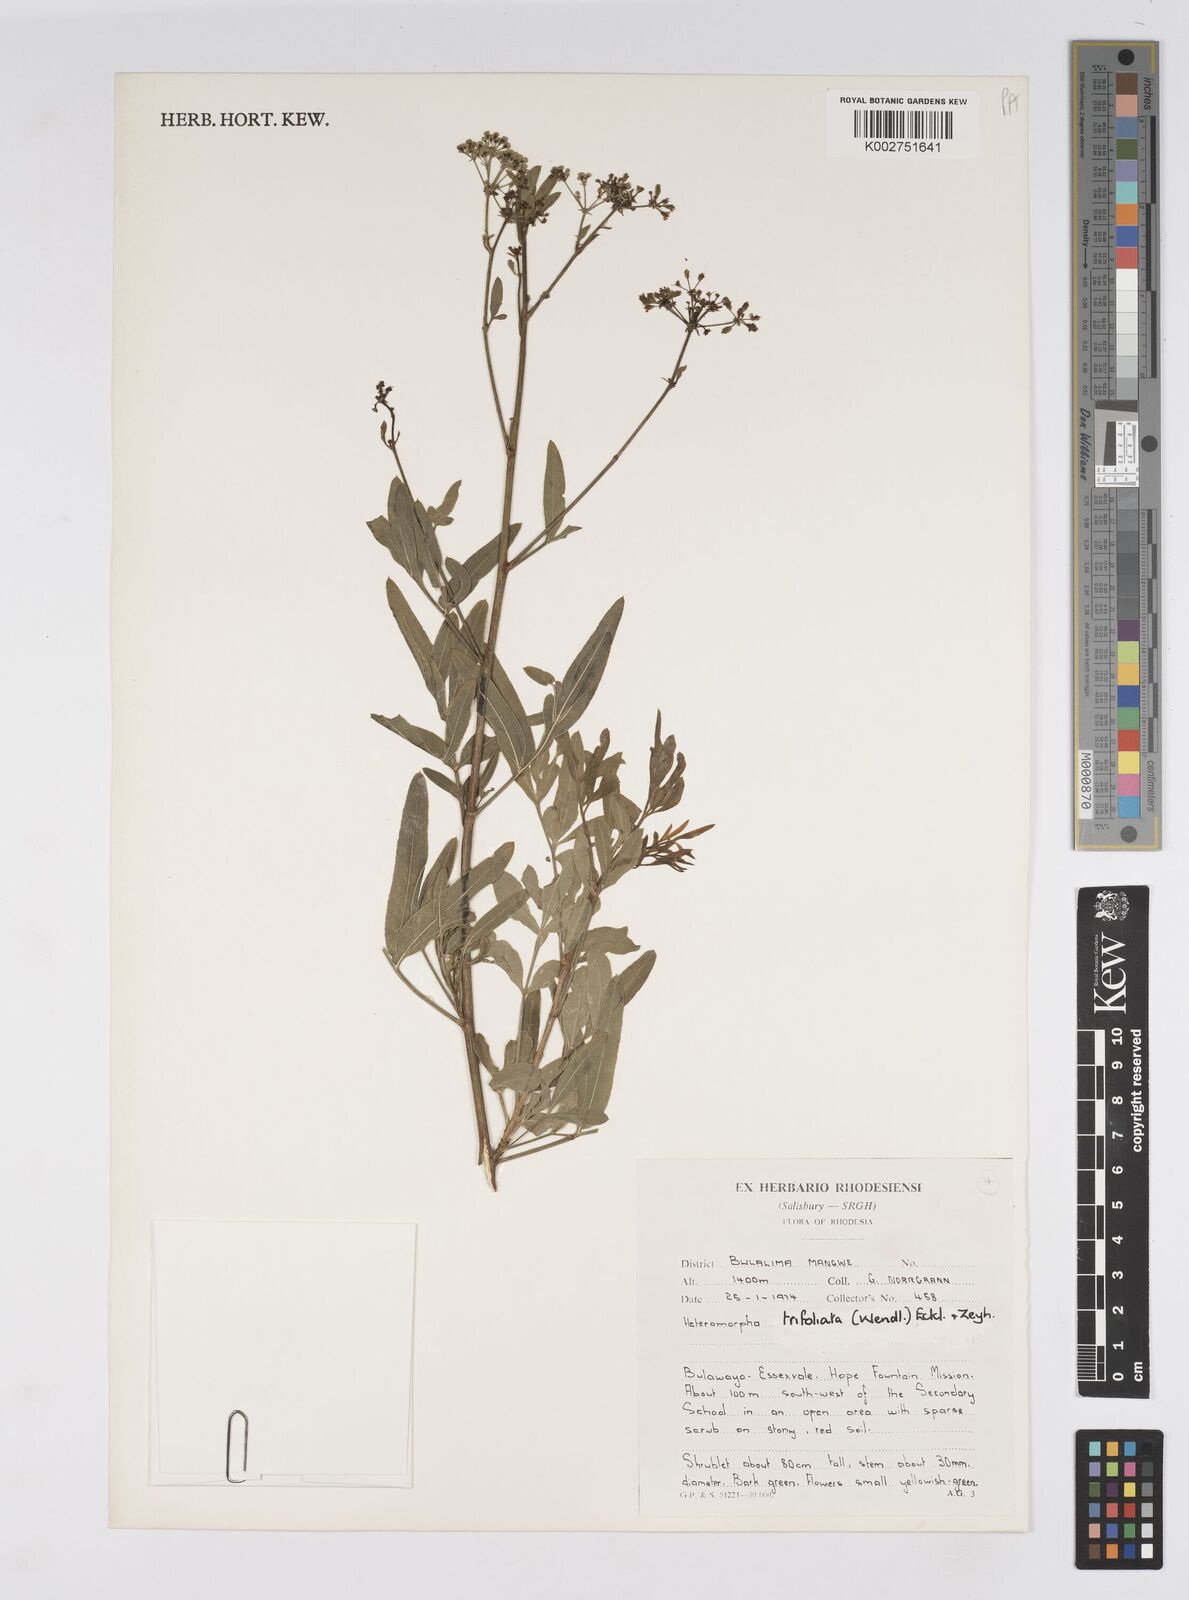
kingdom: Plantae
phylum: Tracheophyta
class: Magnoliopsida
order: Apiales
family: Apiaceae
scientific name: Apiaceae
